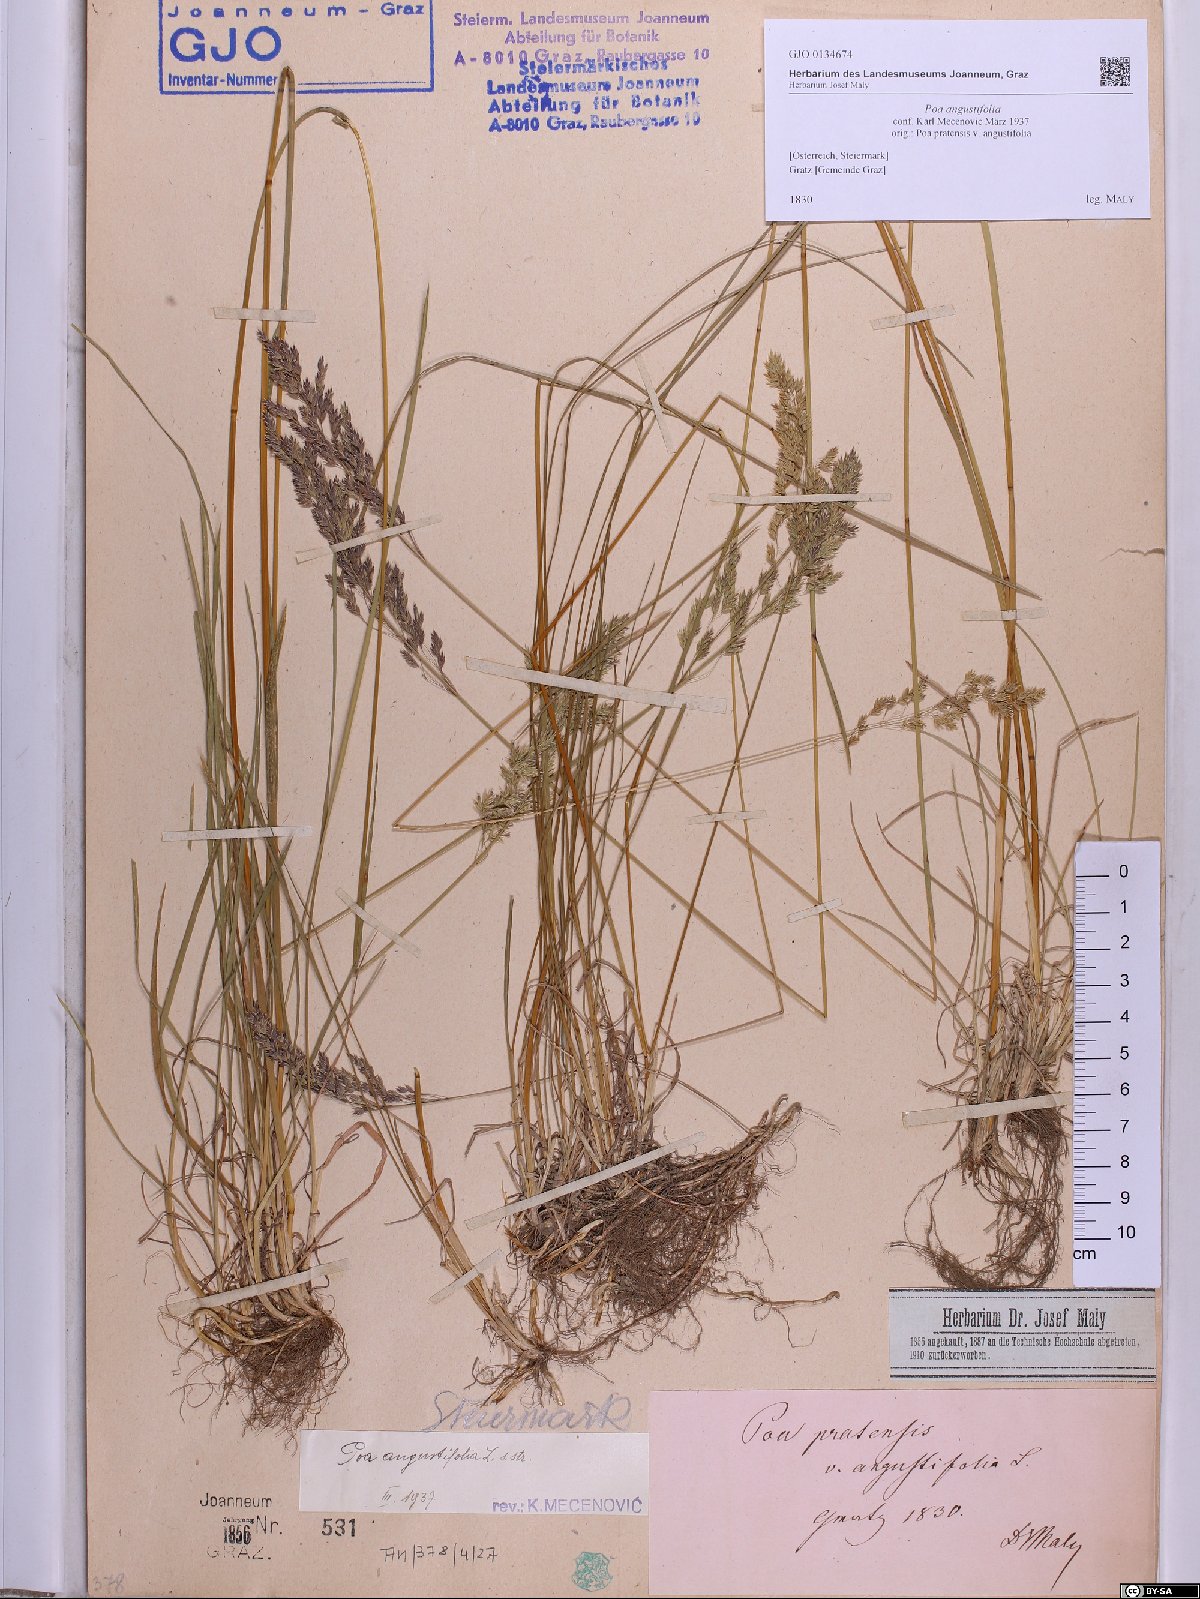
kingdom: Plantae
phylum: Tracheophyta
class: Liliopsida
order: Poales
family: Poaceae
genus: Poa
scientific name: Poa angustifolia
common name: Narrow-leaved meadow-grass
